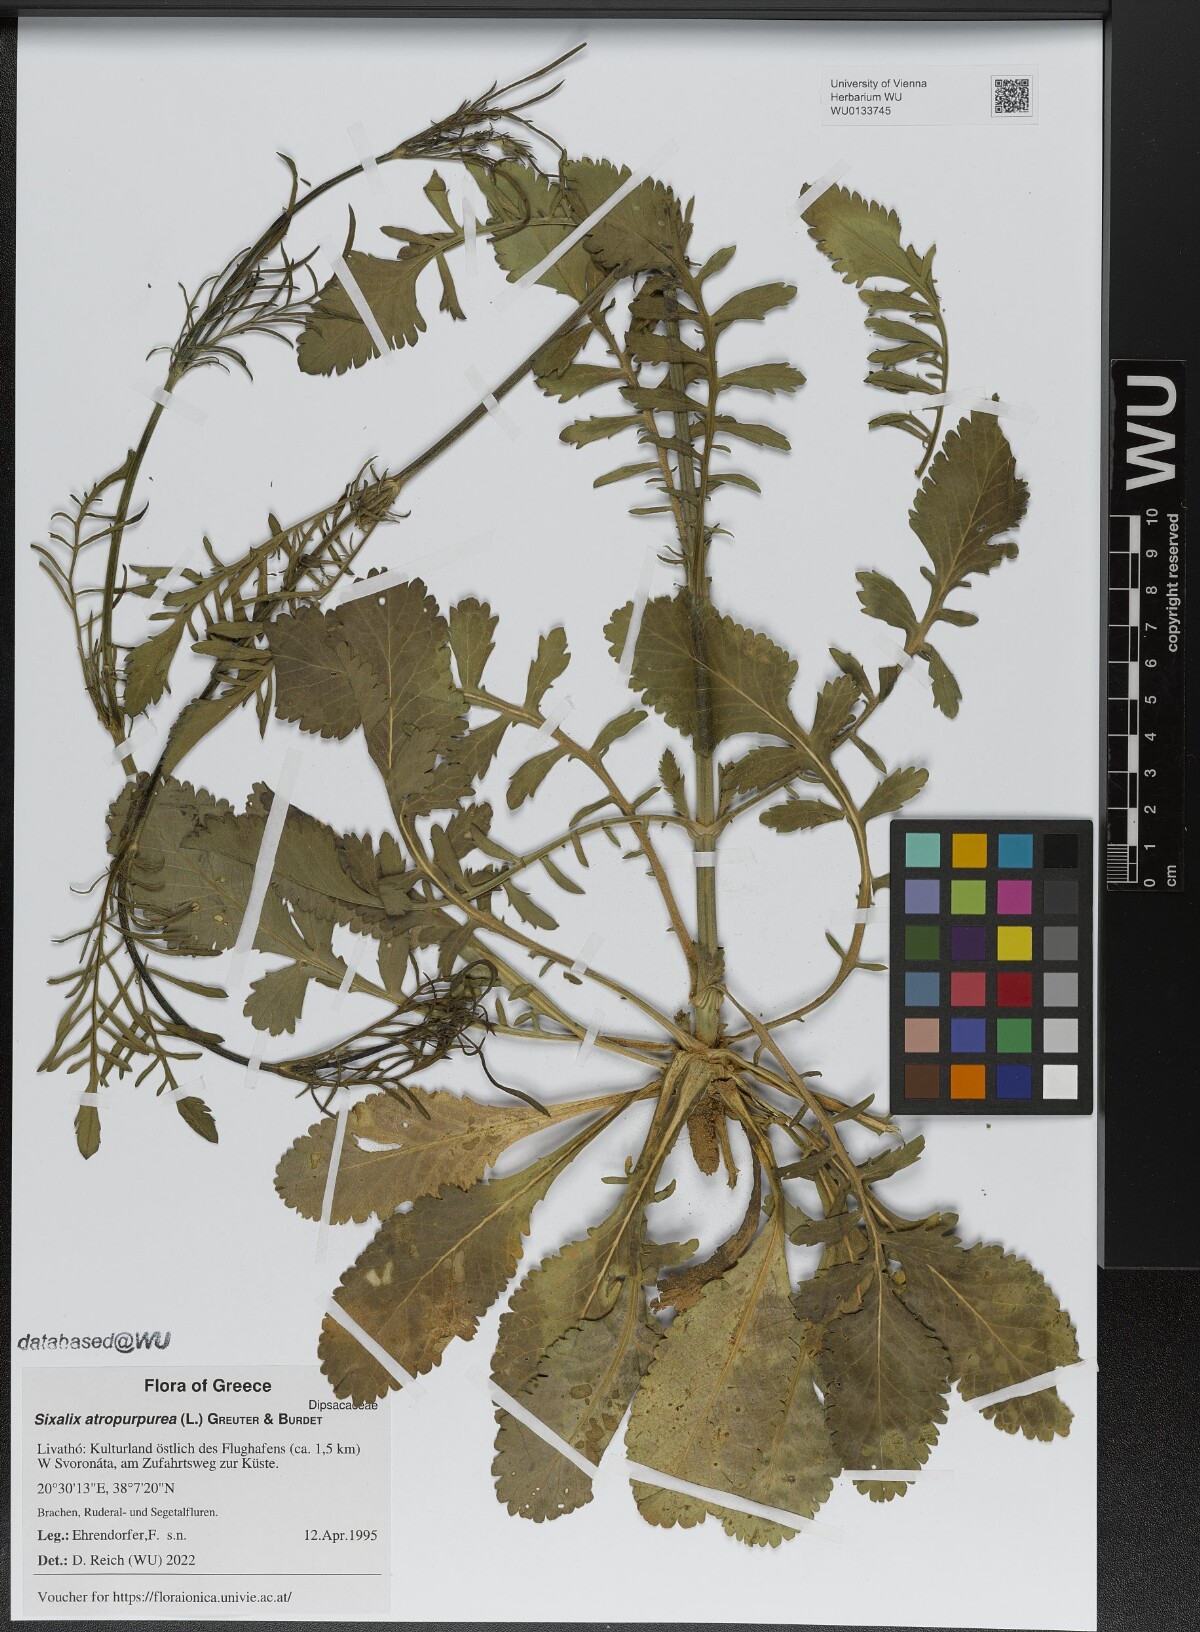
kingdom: Plantae
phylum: Tracheophyta
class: Magnoliopsida
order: Dipsacales
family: Caprifoliaceae
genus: Sixalix
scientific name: Sixalix atropurpurea
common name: Sweet scabious
